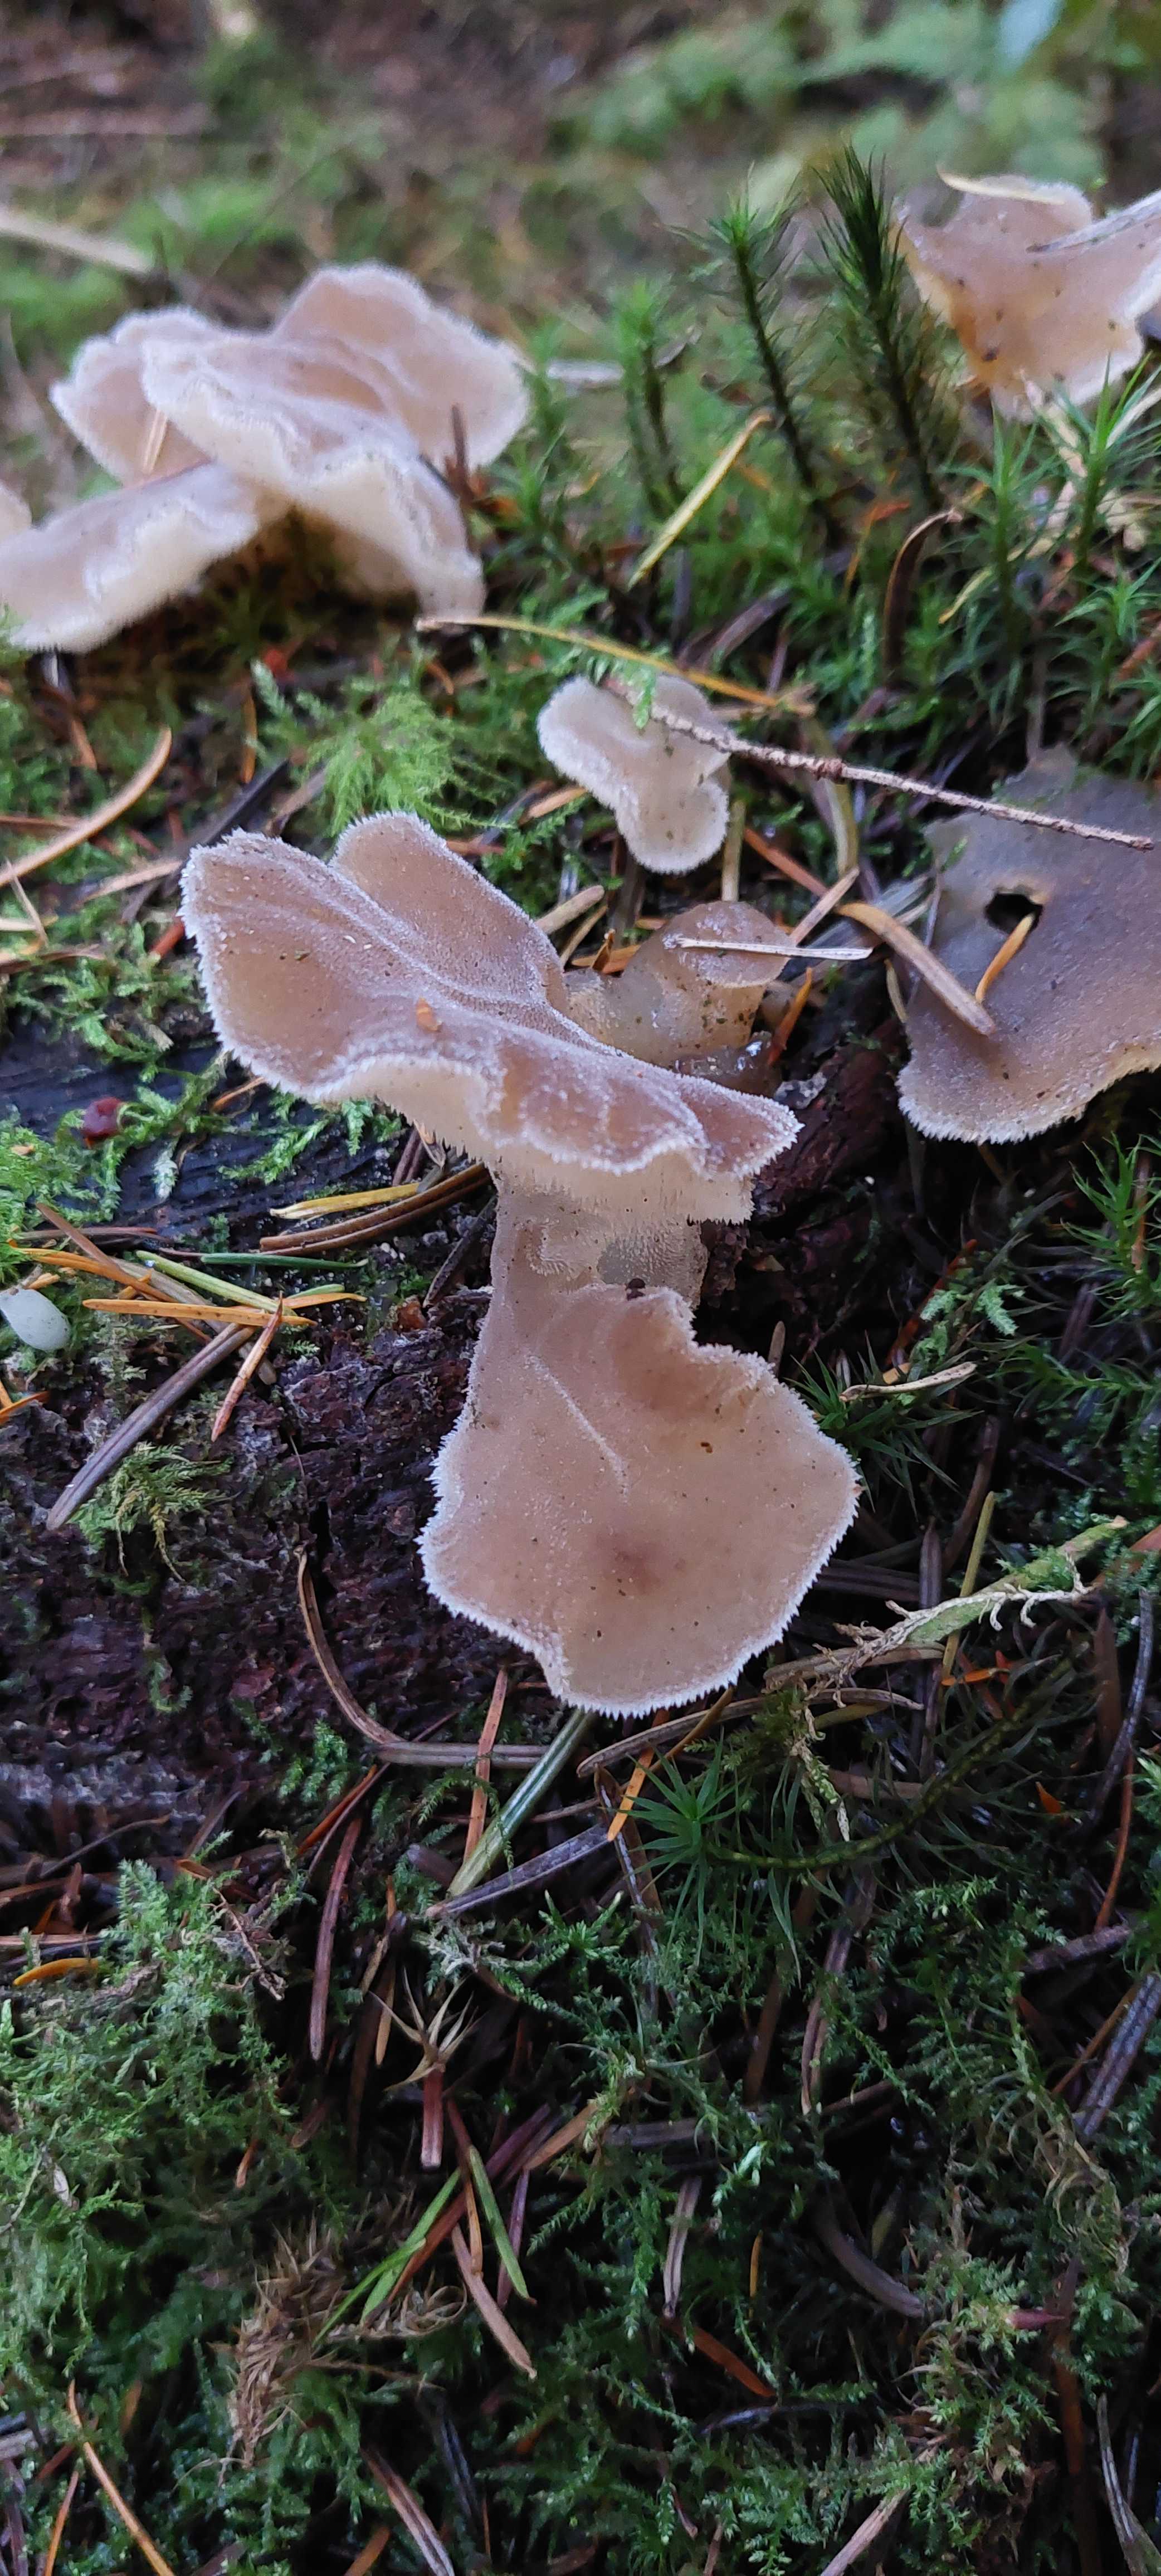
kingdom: Fungi
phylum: Basidiomycota
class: Agaricomycetes
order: Auriculariales
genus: Pseudohydnum
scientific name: Pseudohydnum gelatinosum
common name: bævretand
